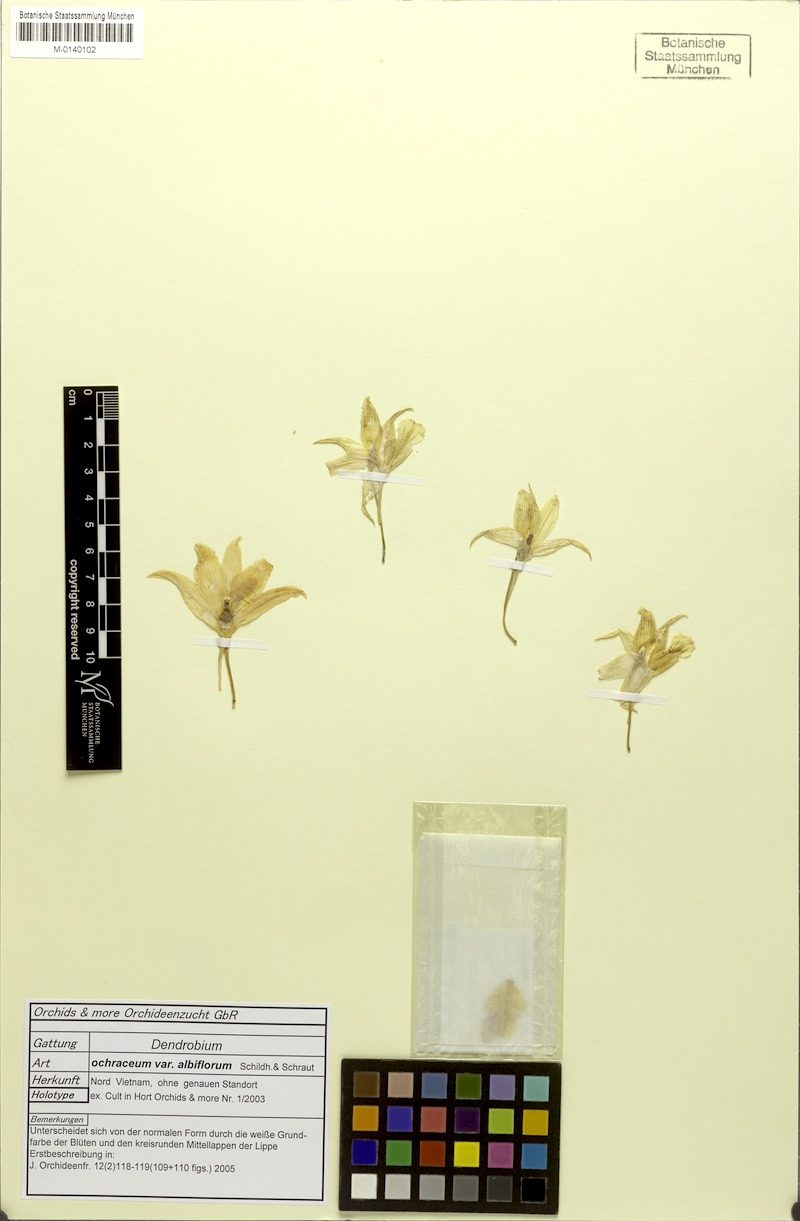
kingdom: Plantae
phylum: Tracheophyta
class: Liliopsida
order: Asparagales
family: Orchidaceae
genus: Dendrobium
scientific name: Dendrobium ochraceum
